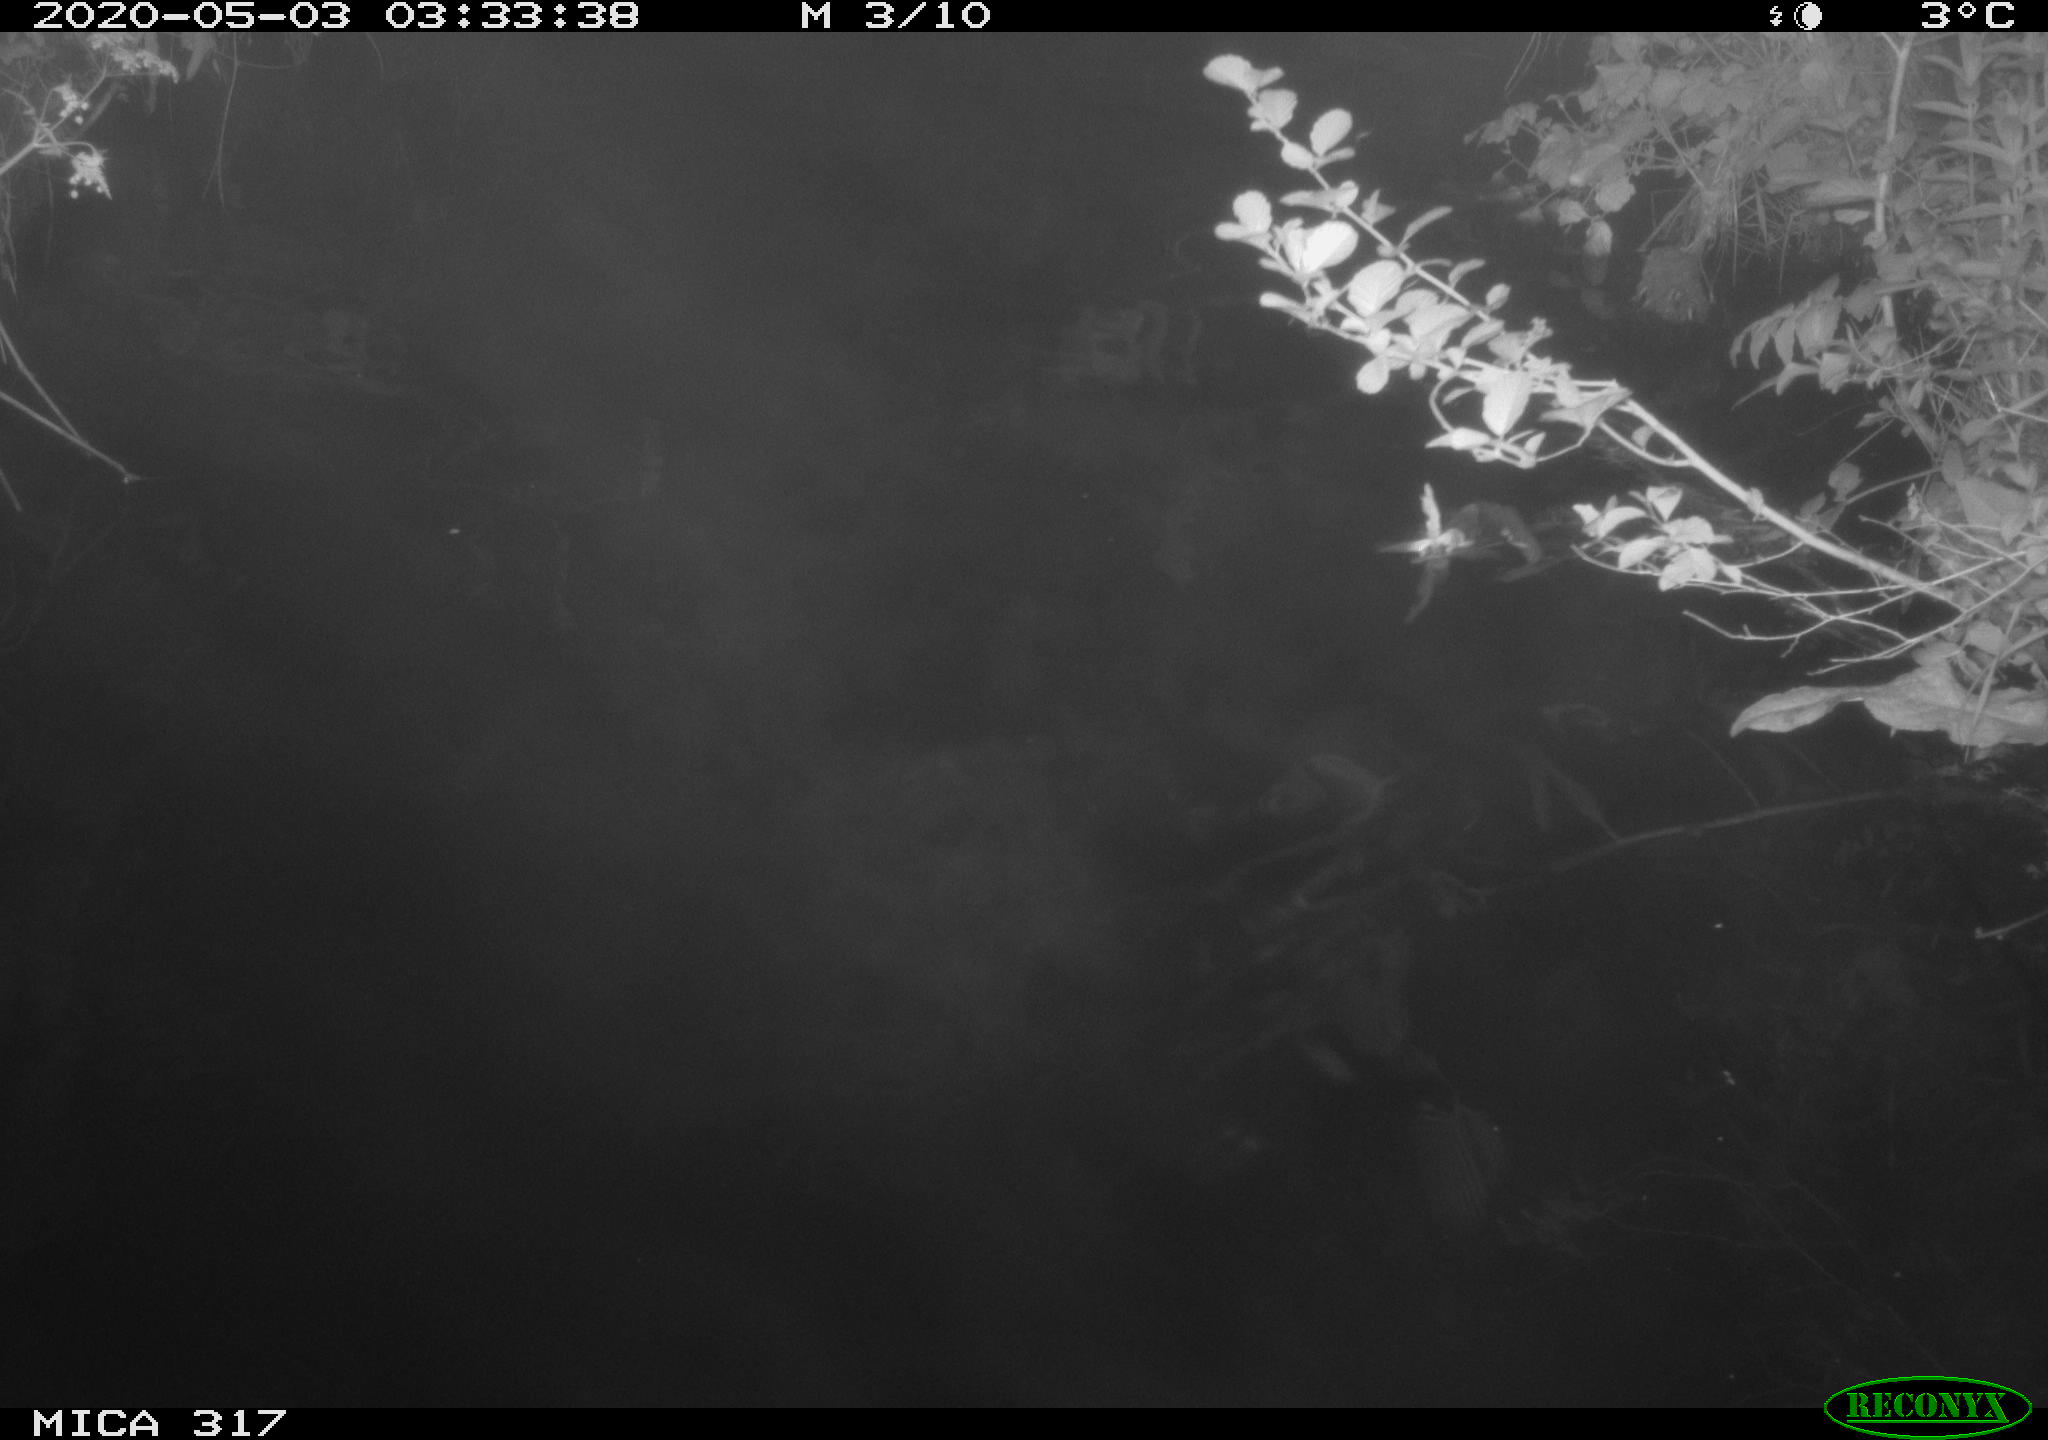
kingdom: Animalia
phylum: Chordata
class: Aves
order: Anseriformes
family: Anatidae
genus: Anas
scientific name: Anas platyrhynchos
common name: Mallard
